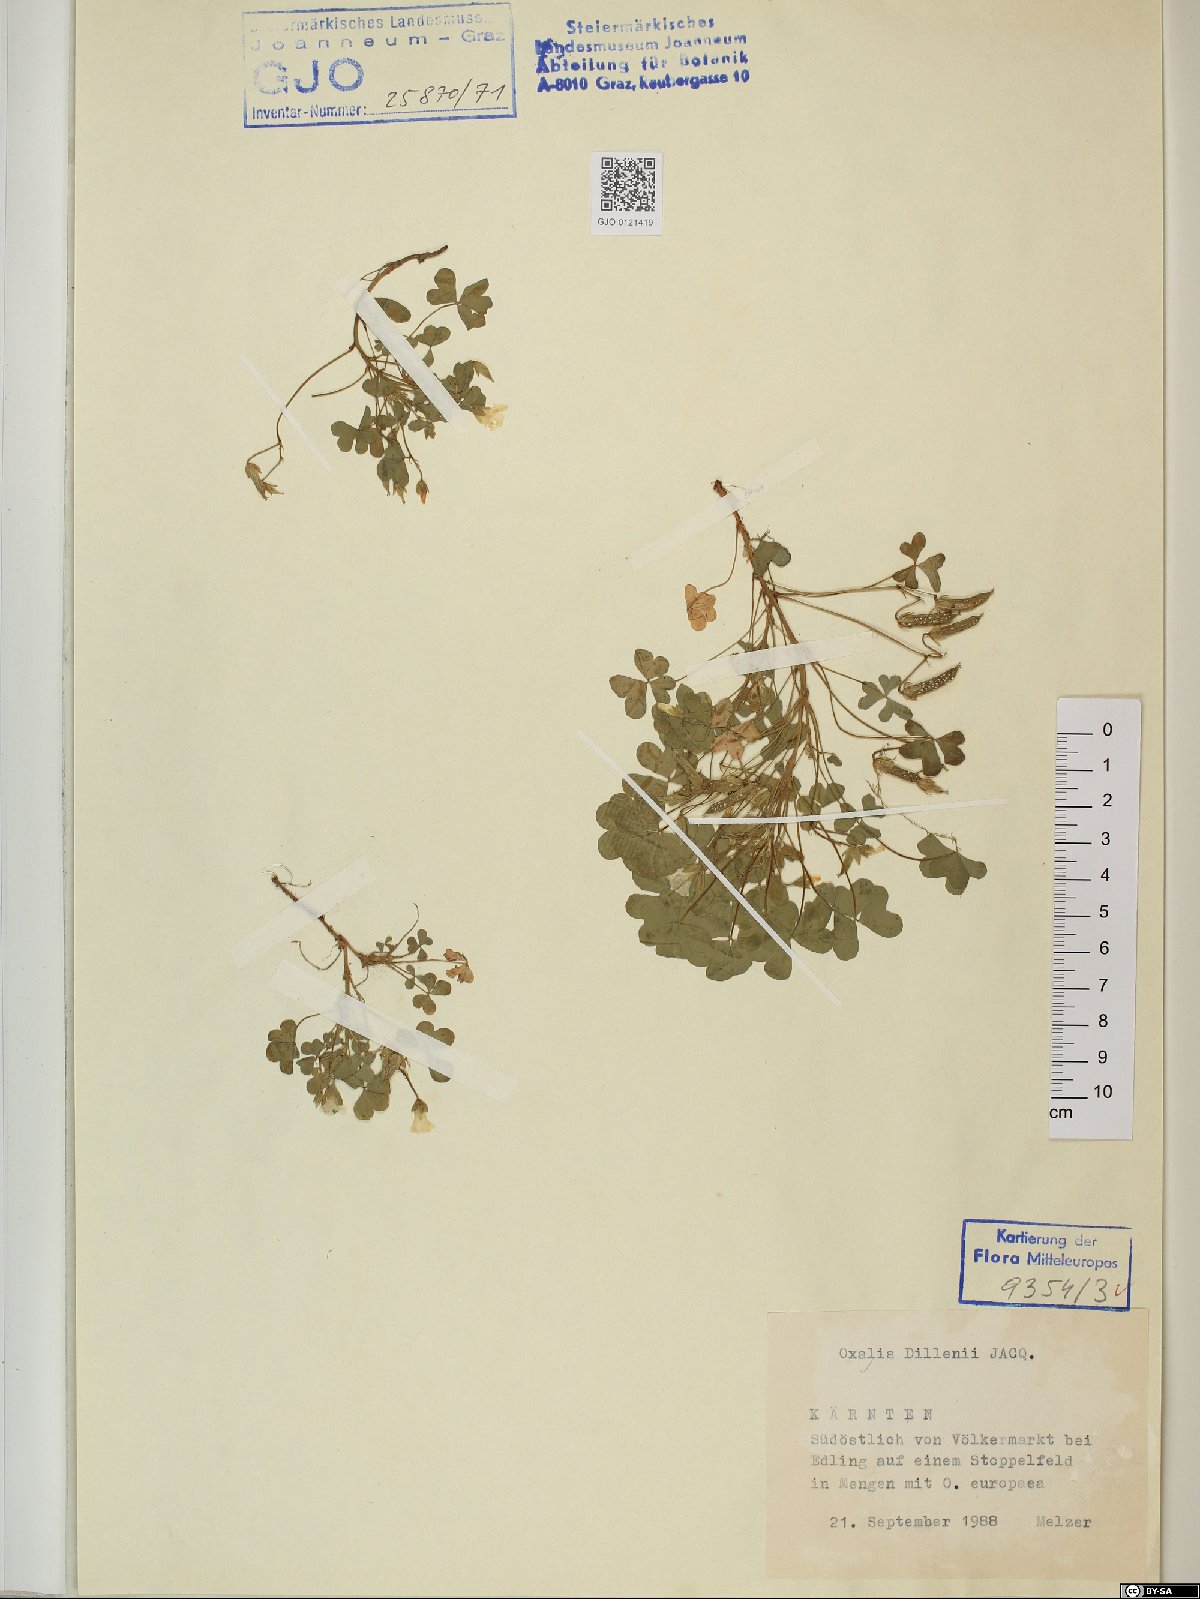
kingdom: Plantae
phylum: Tracheophyta
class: Magnoliopsida
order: Oxalidales
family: Oxalidaceae
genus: Oxalis
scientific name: Oxalis dillenii
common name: Sussex yellow-sorrel
